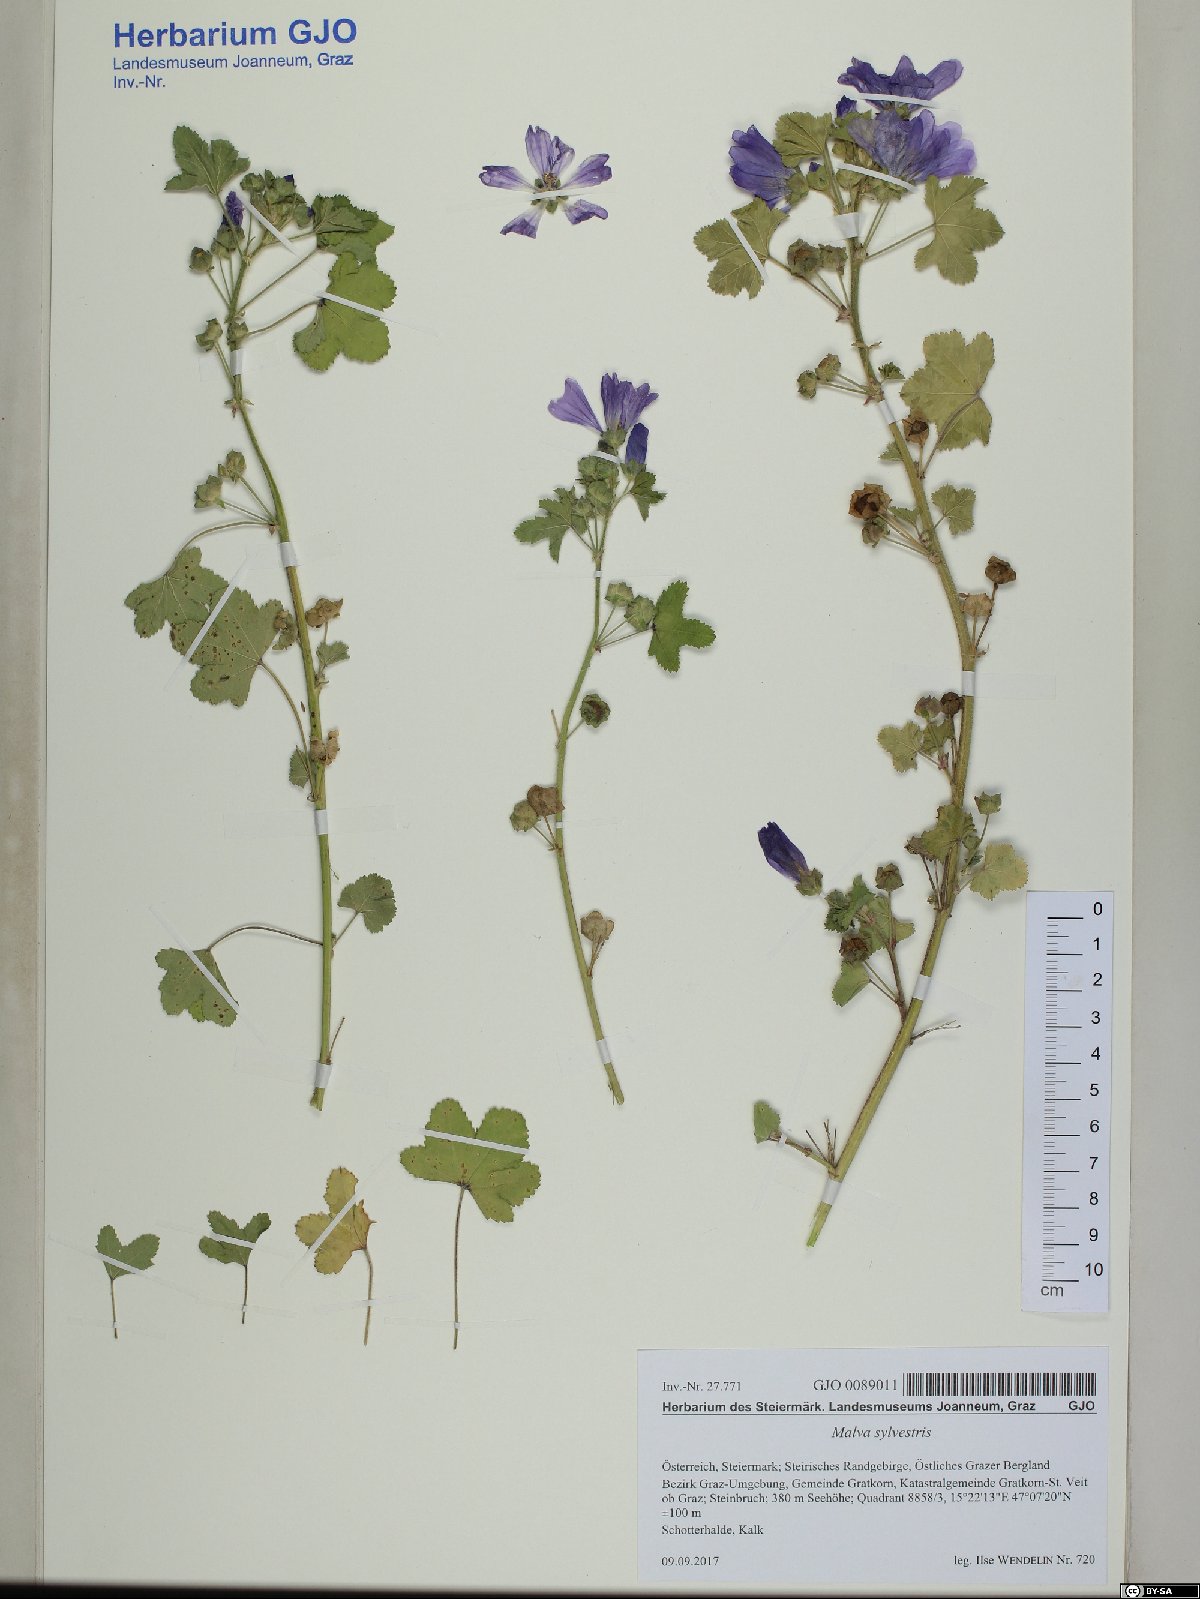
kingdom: Plantae
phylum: Tracheophyta
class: Magnoliopsida
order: Malvales
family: Malvaceae
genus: Malva
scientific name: Malva sylvestris
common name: Common mallow
